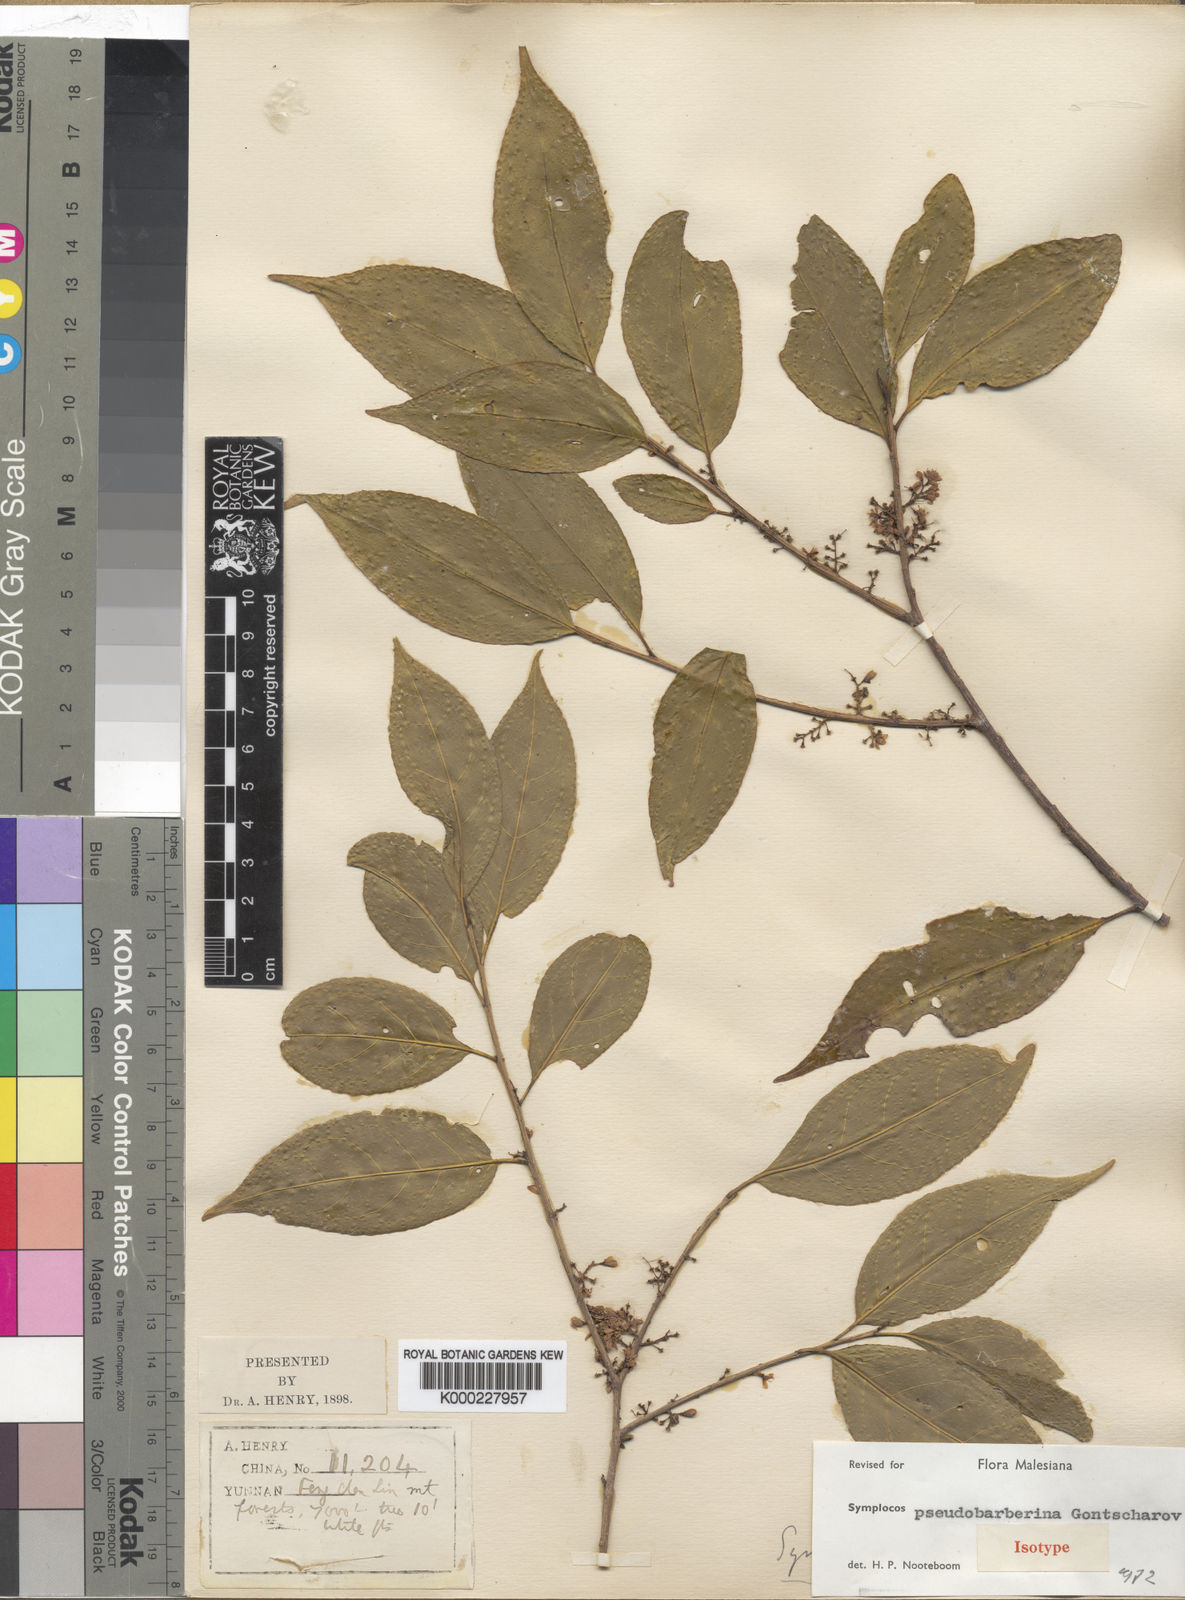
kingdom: Plantae
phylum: Tracheophyta
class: Magnoliopsida
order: Ericales
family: Symplocaceae
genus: Symplocos
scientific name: Symplocos pseudobarberina
